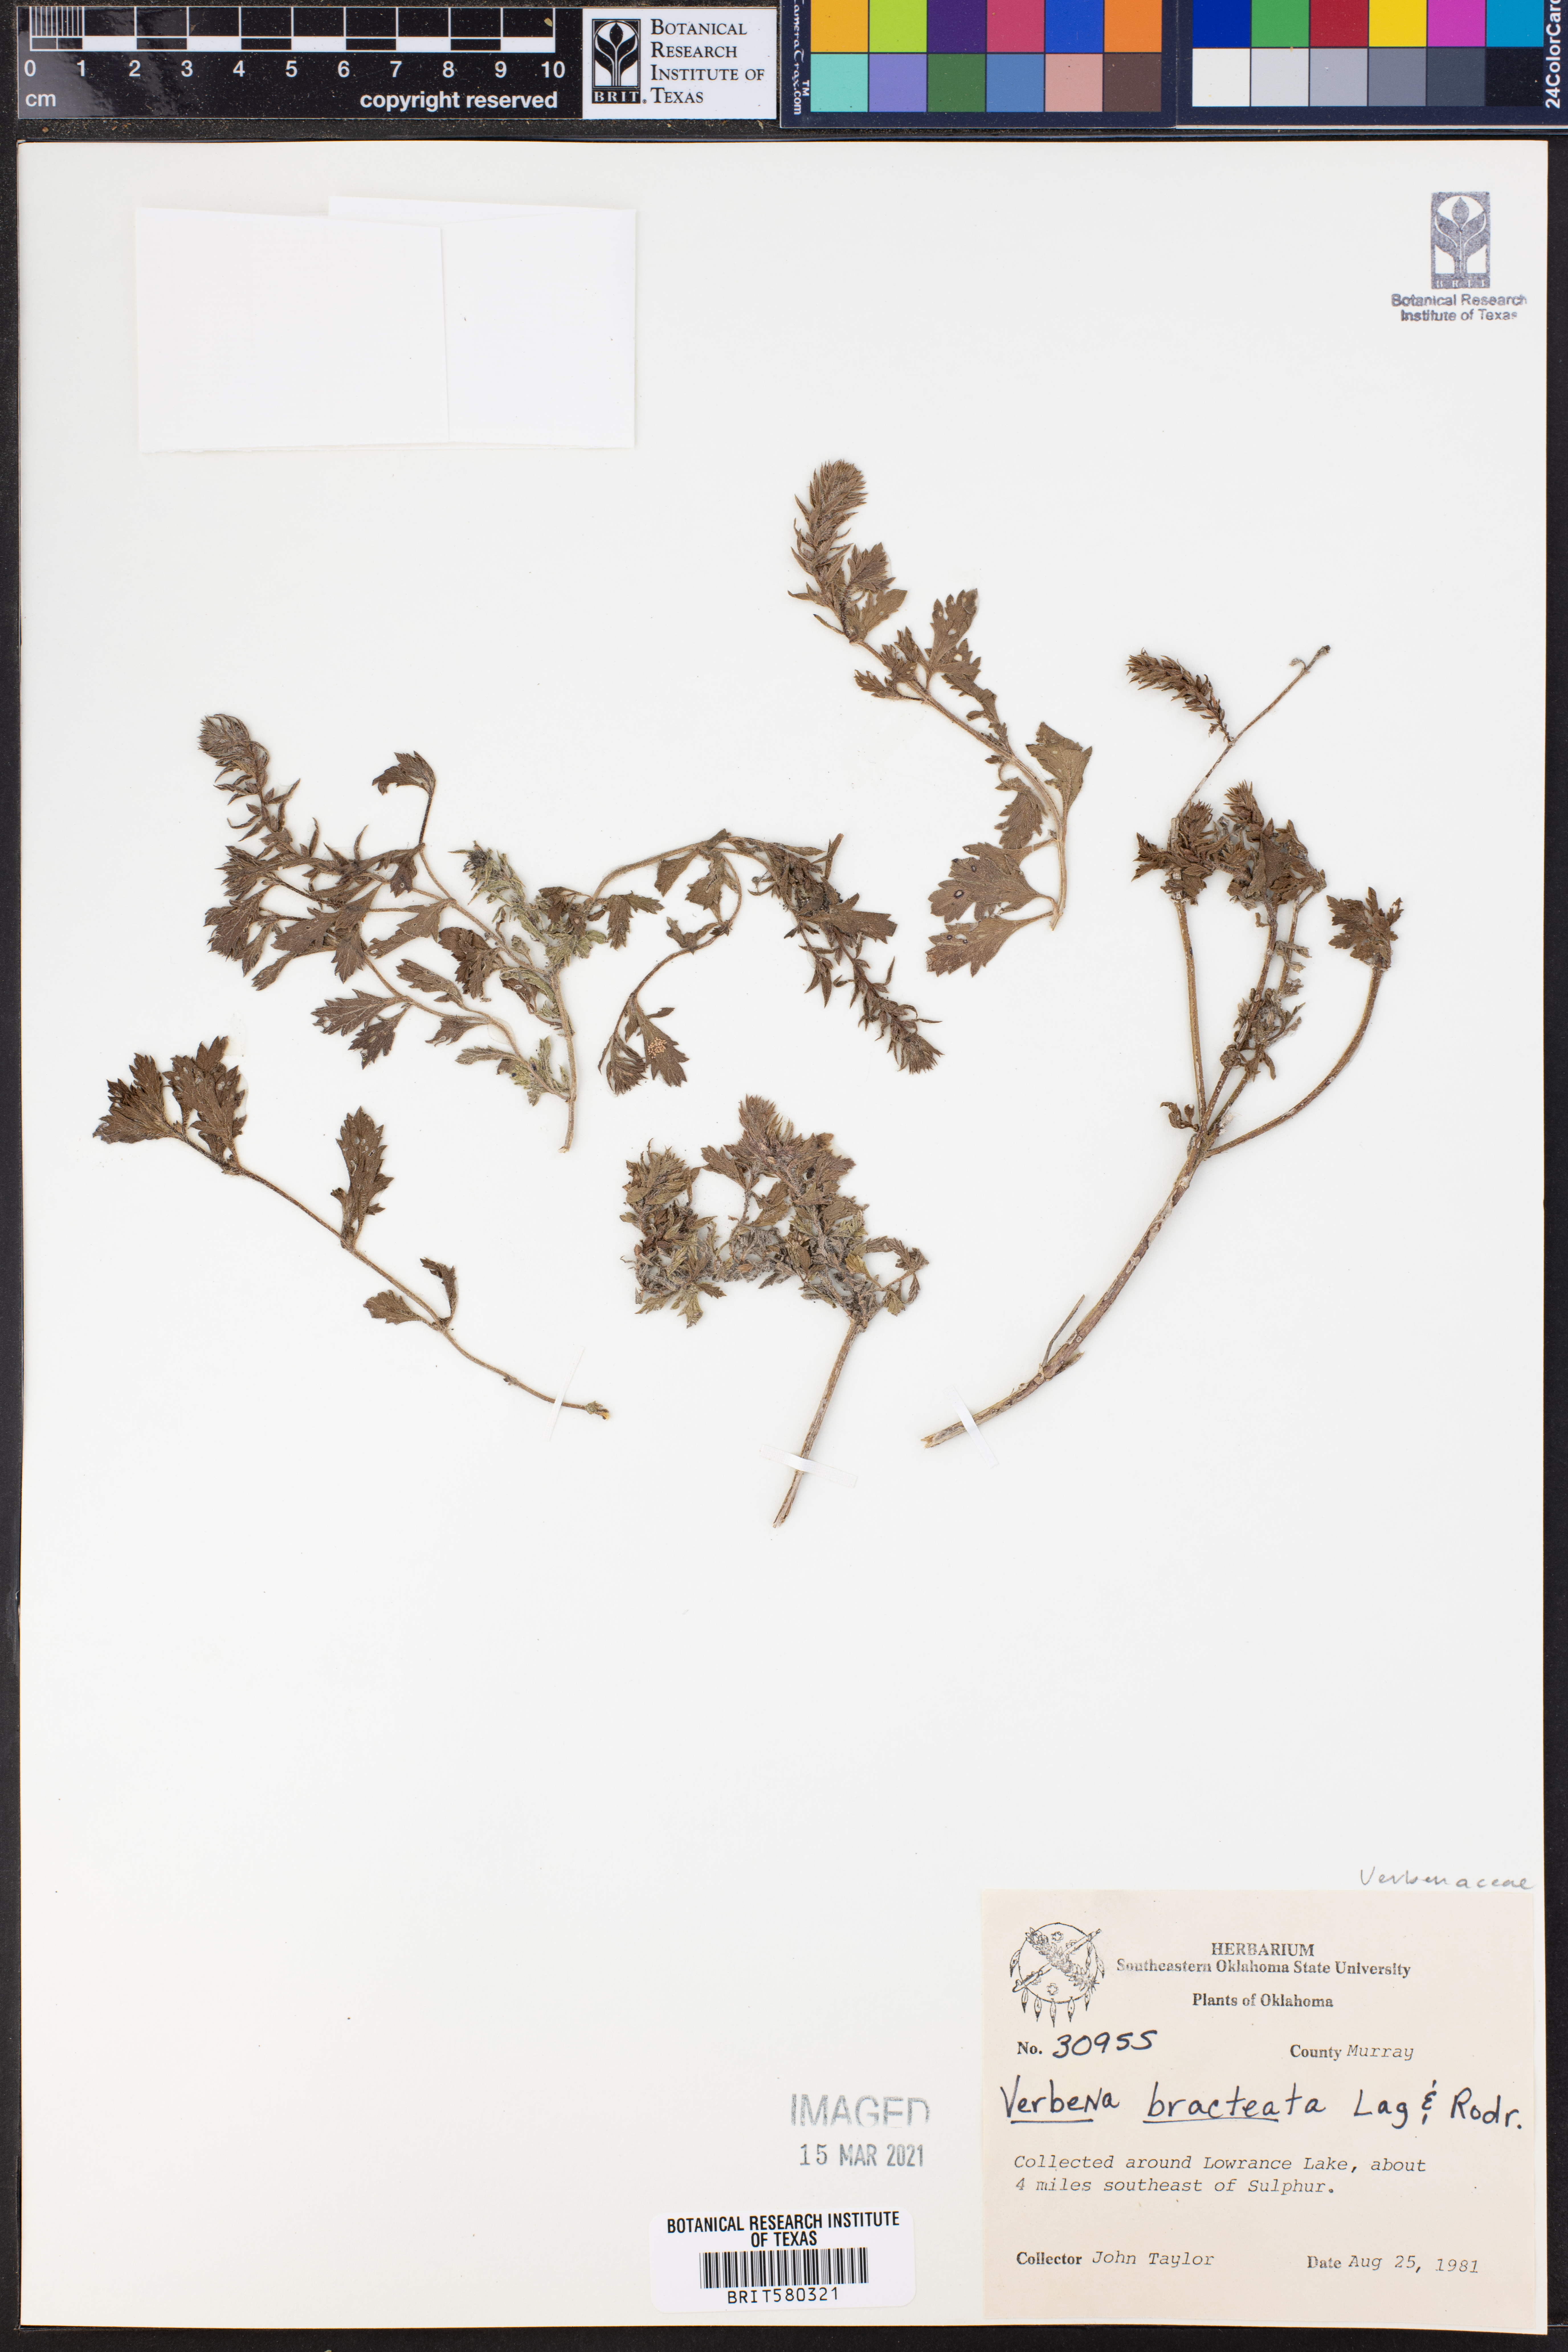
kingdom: Plantae
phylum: Tracheophyta
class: Magnoliopsida
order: Lamiales
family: Verbenaceae
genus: Verbena
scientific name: Verbena bracteata
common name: Bracted vervain
